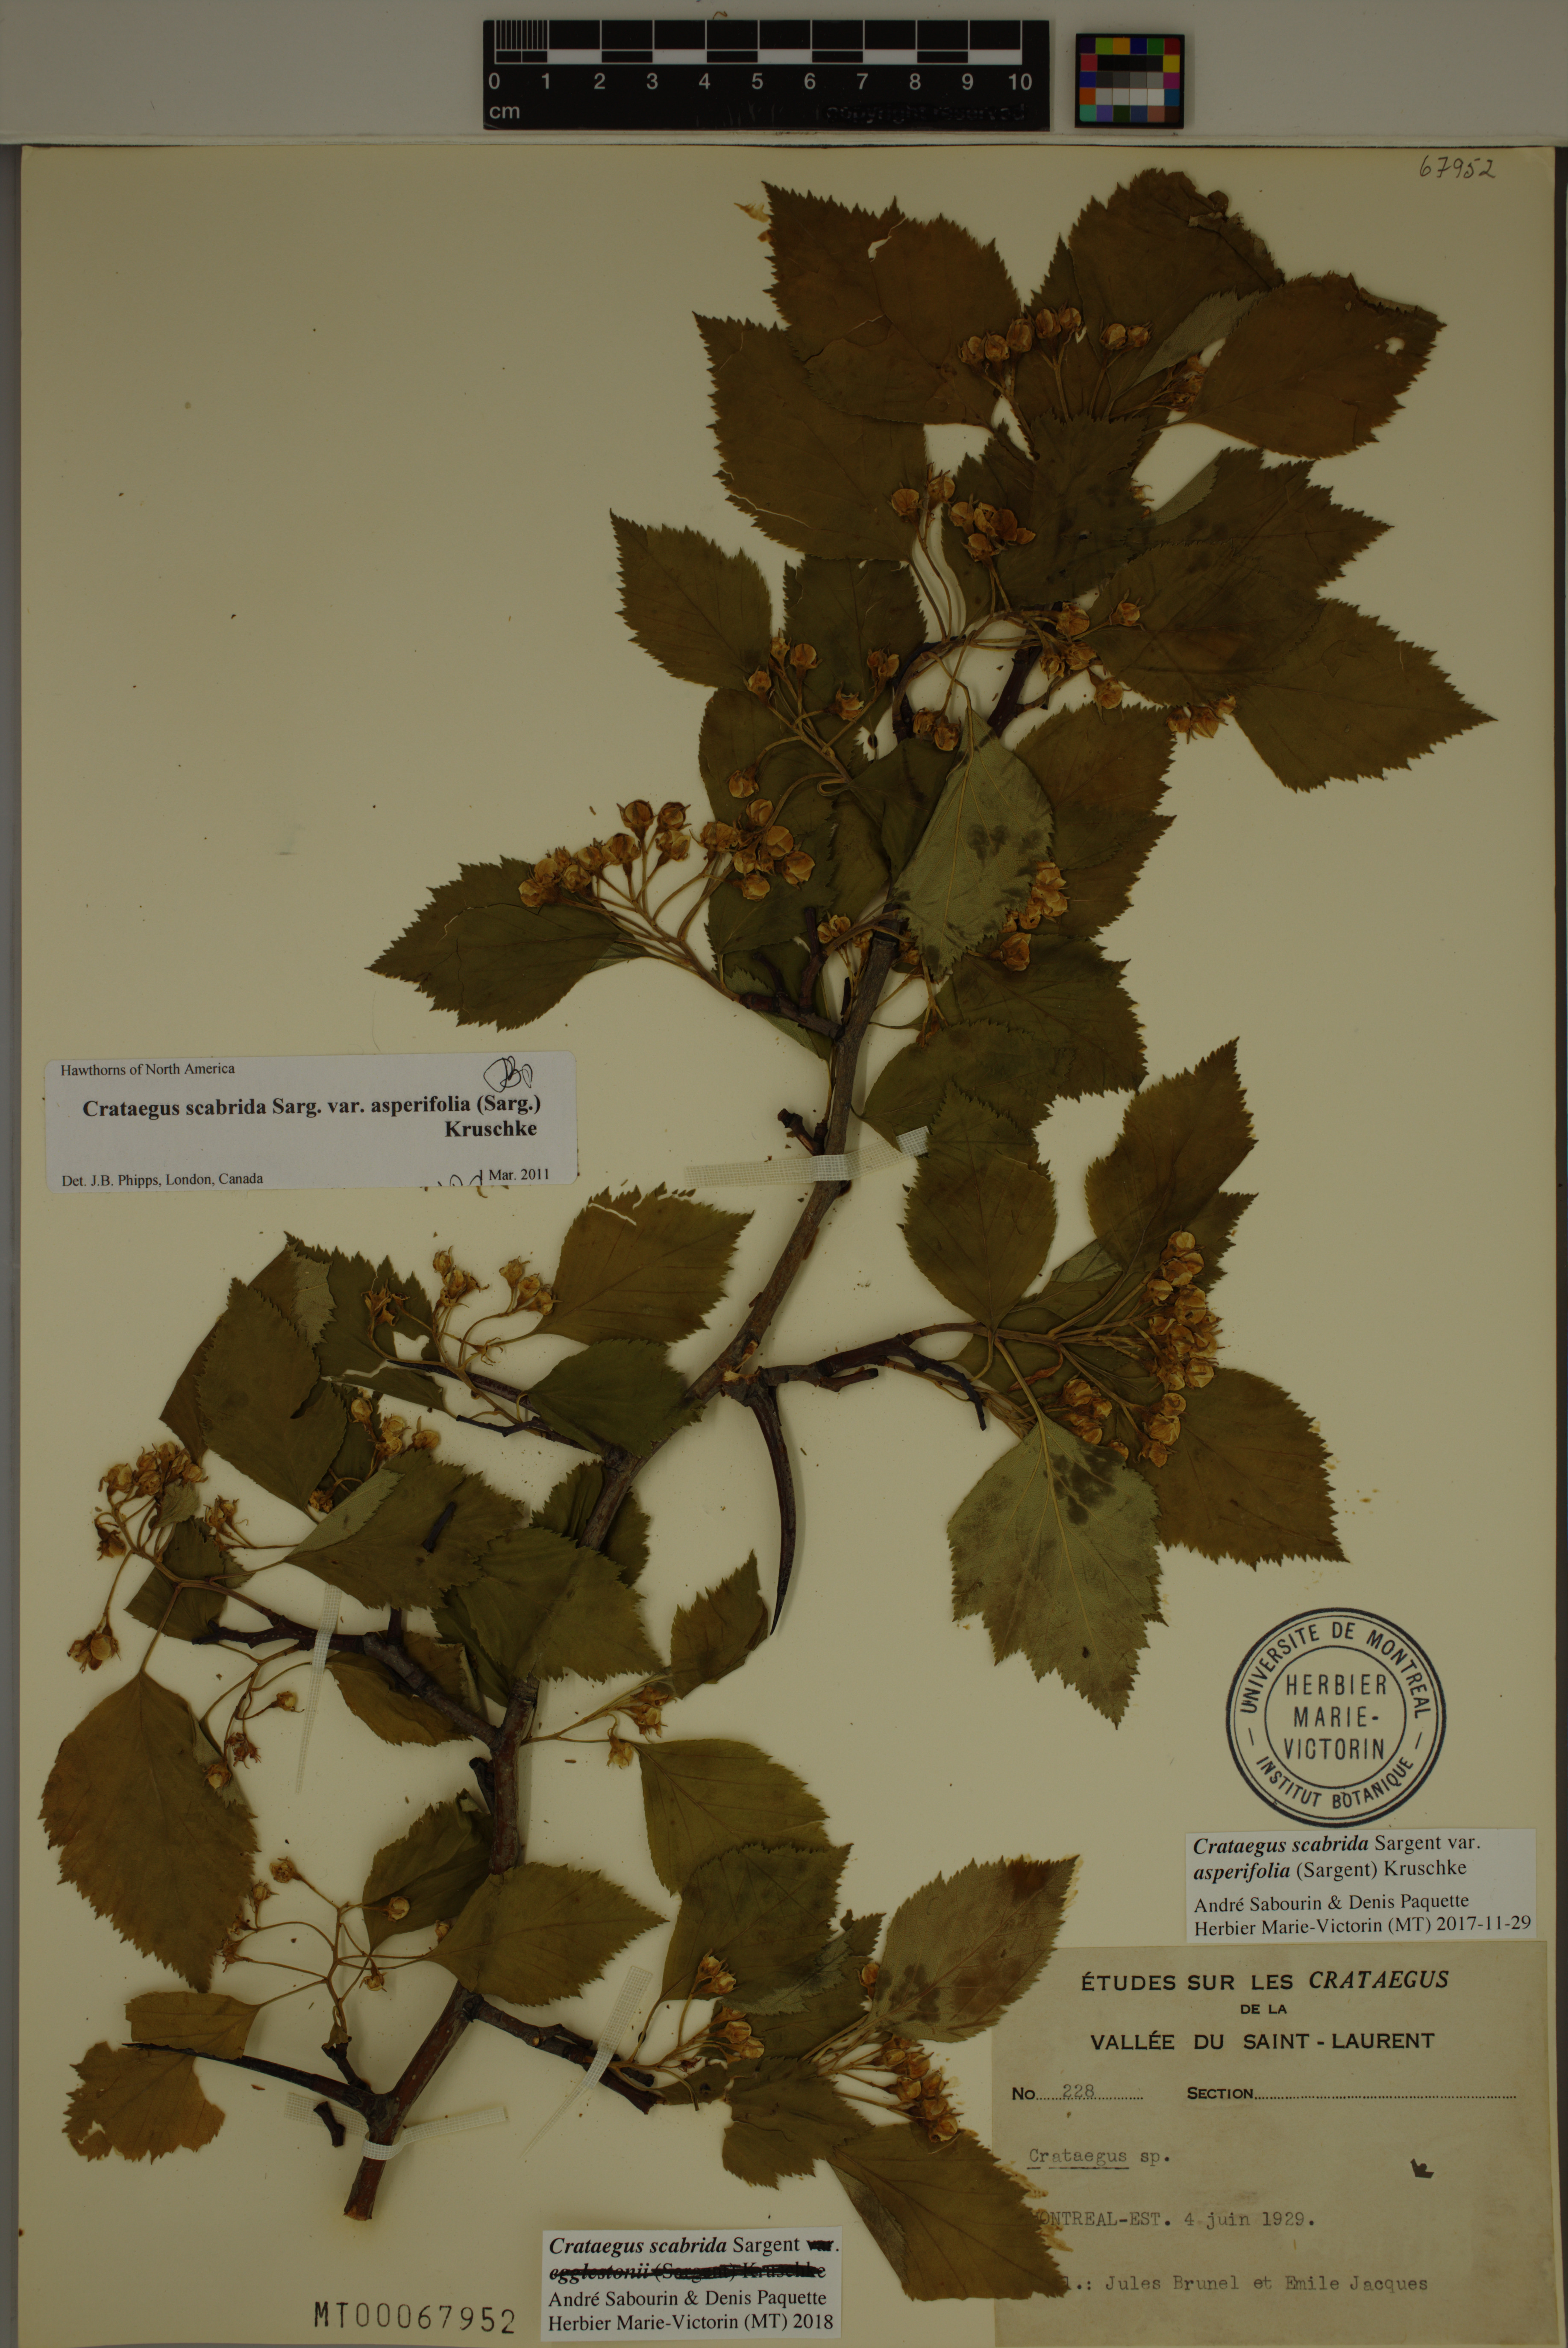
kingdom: Plantae
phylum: Tracheophyta
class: Magnoliopsida
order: Rosales
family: Rosaceae
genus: Crataegus
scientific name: Crataegus scabrida
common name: Rough hawthorn
